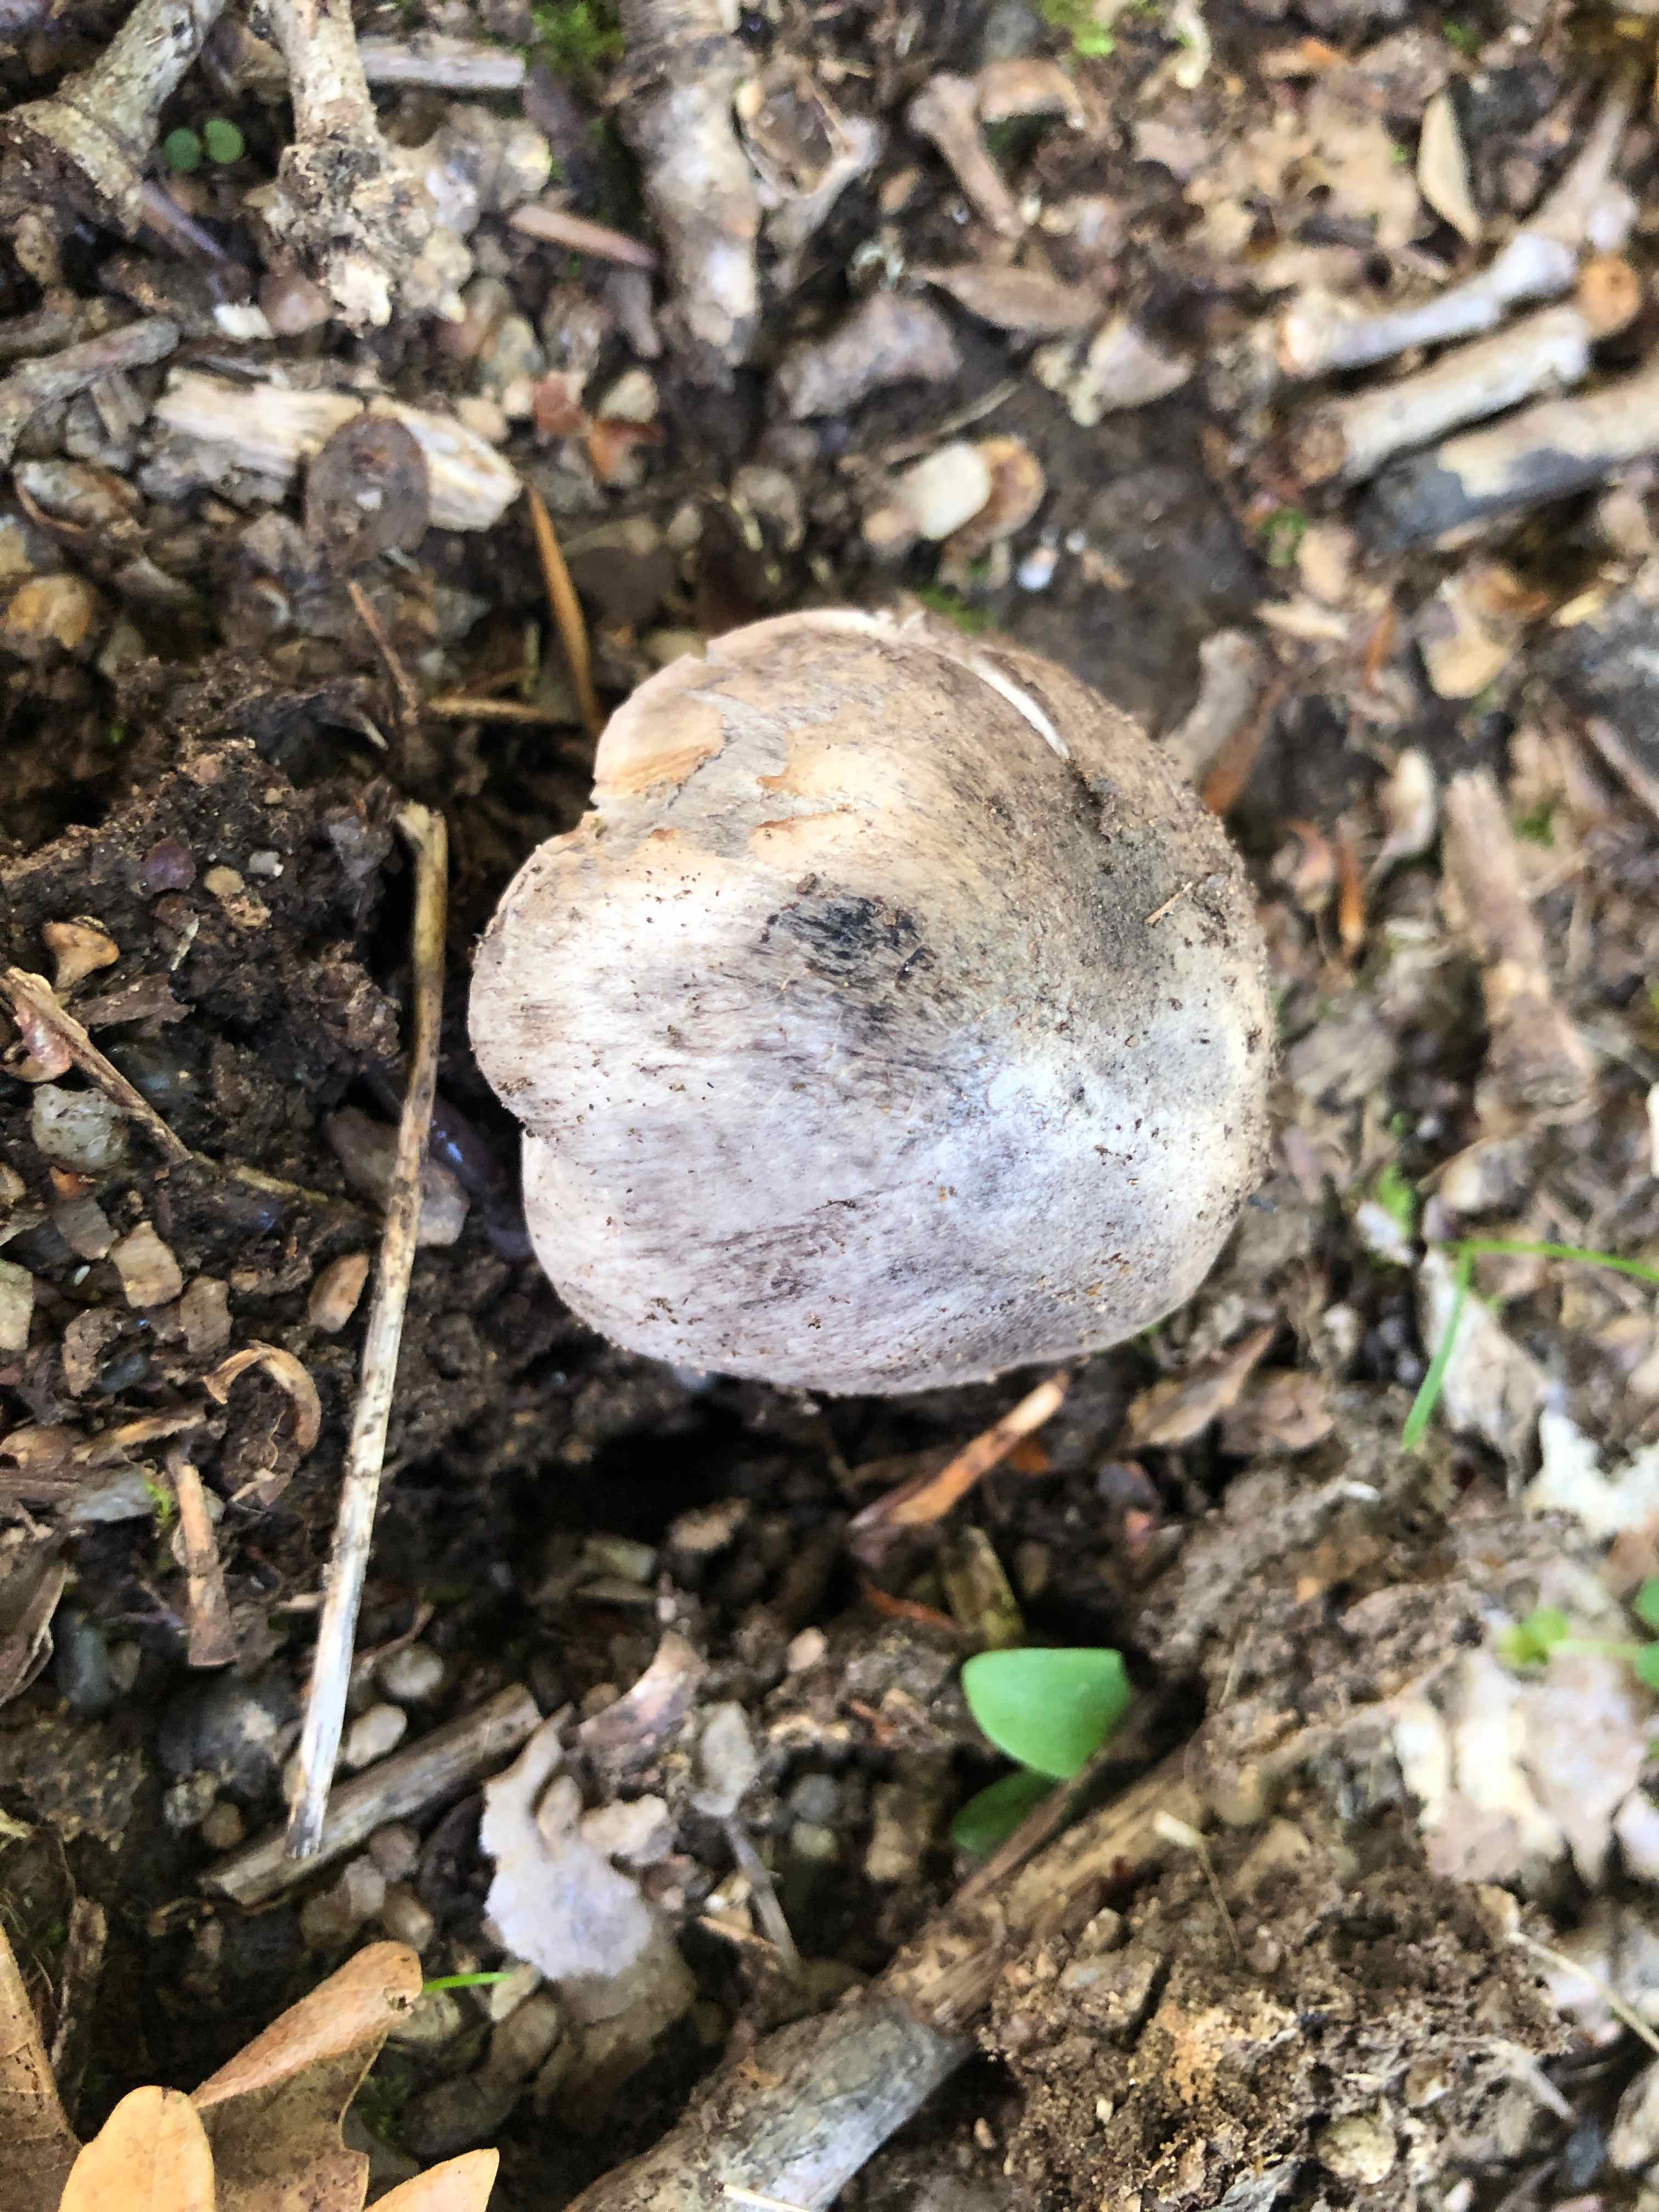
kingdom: Fungi
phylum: Basidiomycota
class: Agaricomycetes
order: Agaricales
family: Tricholomataceae
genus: Tricholoma
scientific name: Tricholoma bresadolanum
